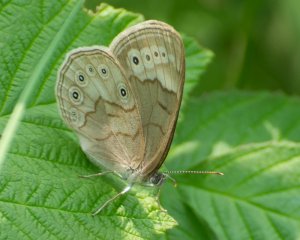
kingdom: Animalia
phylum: Arthropoda
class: Insecta
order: Lepidoptera
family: Nymphalidae
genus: Lethe
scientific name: Lethe eurydice
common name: Eyed Brown
